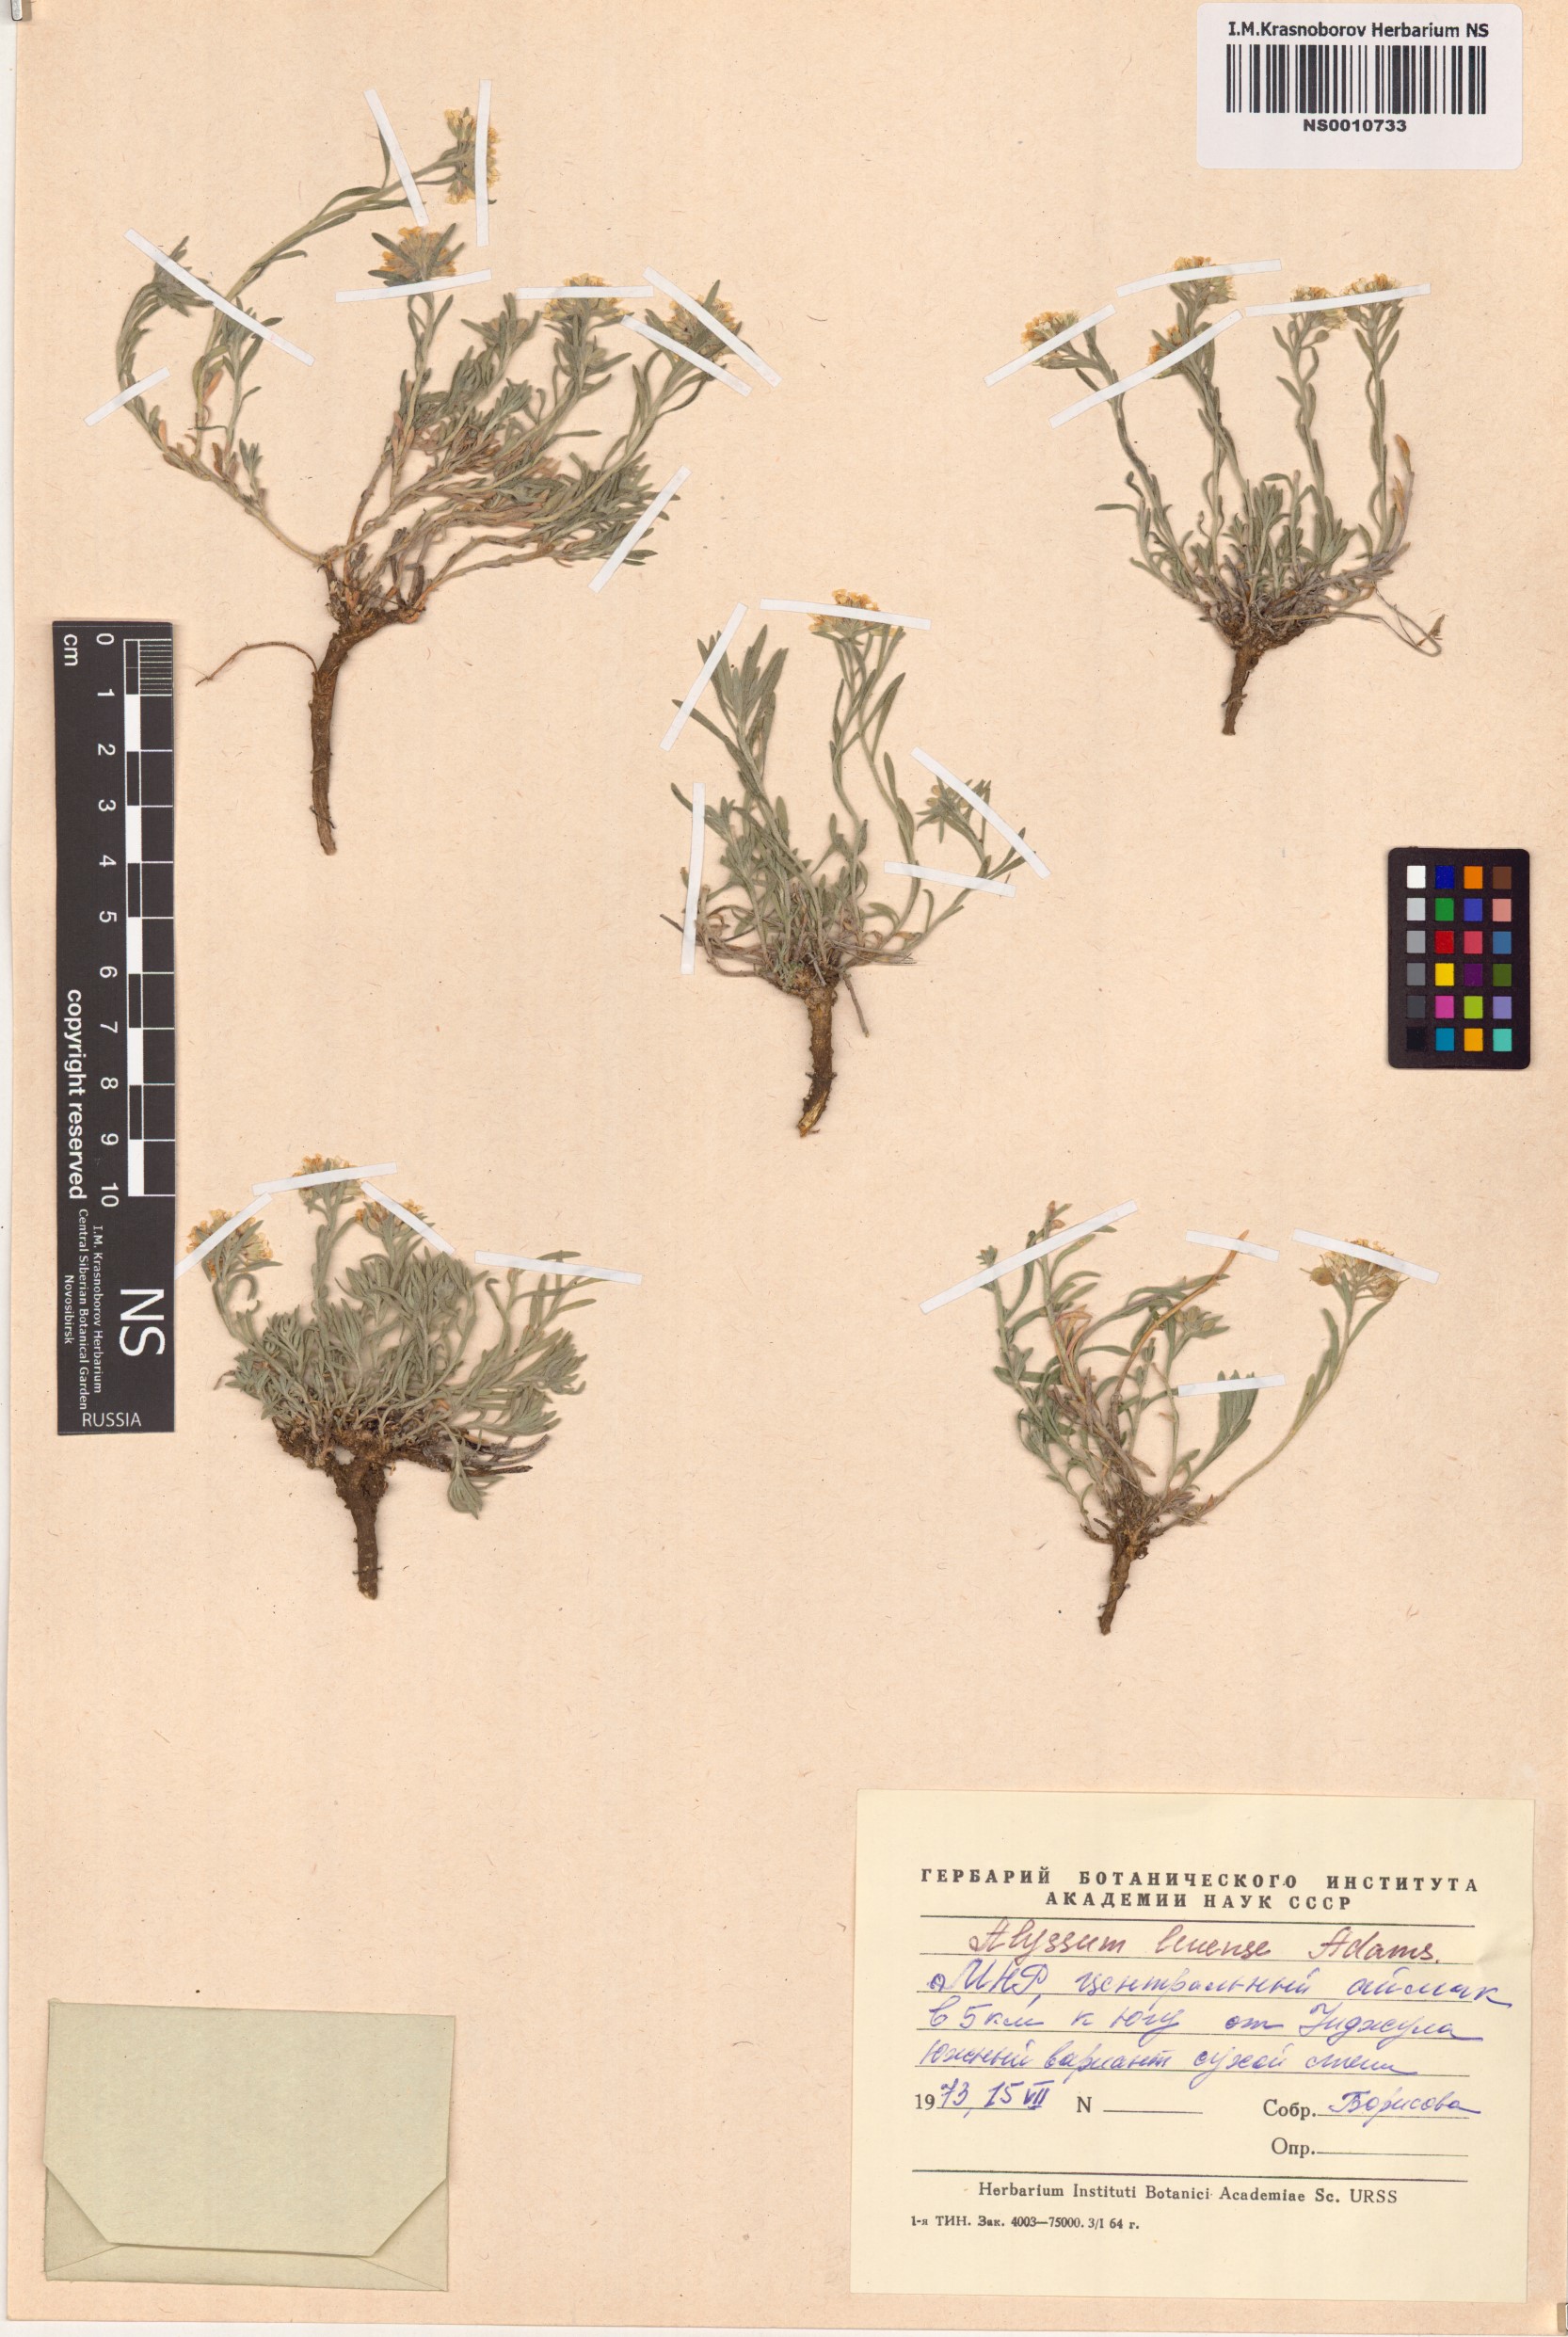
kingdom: Plantae
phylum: Tracheophyta
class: Magnoliopsida
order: Brassicales
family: Brassicaceae
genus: Alyssum
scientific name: Alyssum lenense
